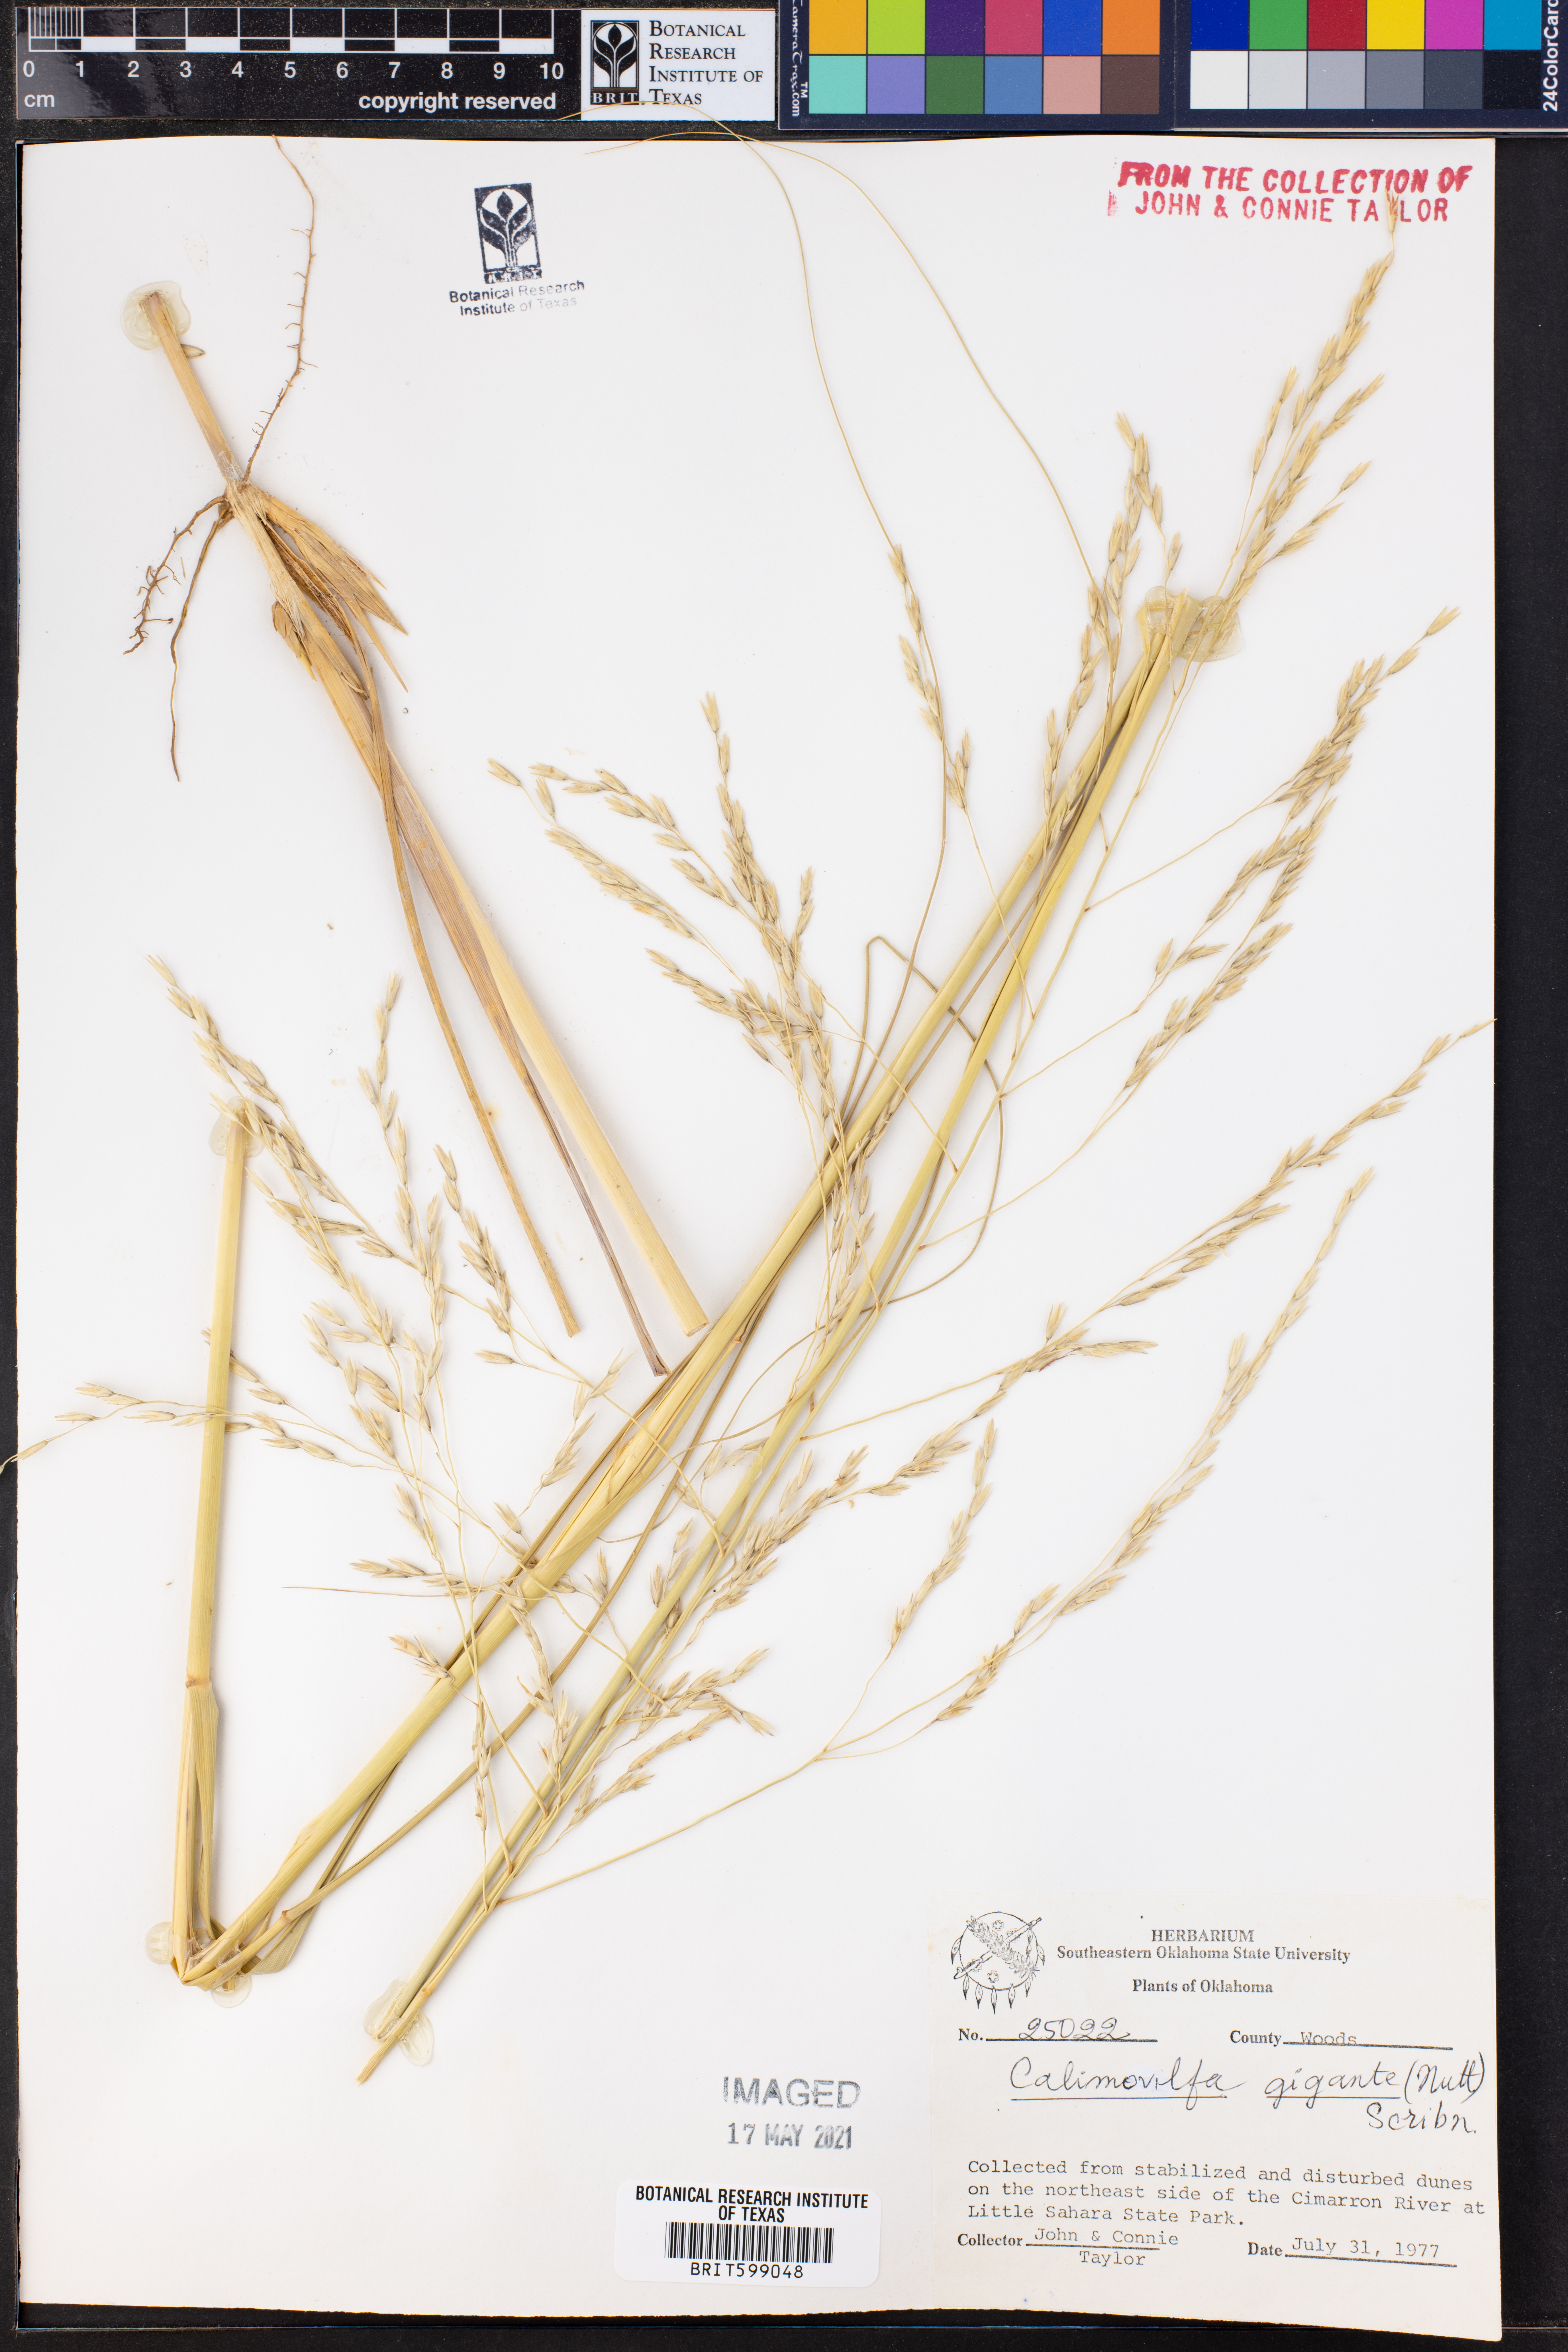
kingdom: Plantae
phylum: Tracheophyta
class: Liliopsida
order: Poales
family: Poaceae
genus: Sporobolus
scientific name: Sporobolus arenicola
